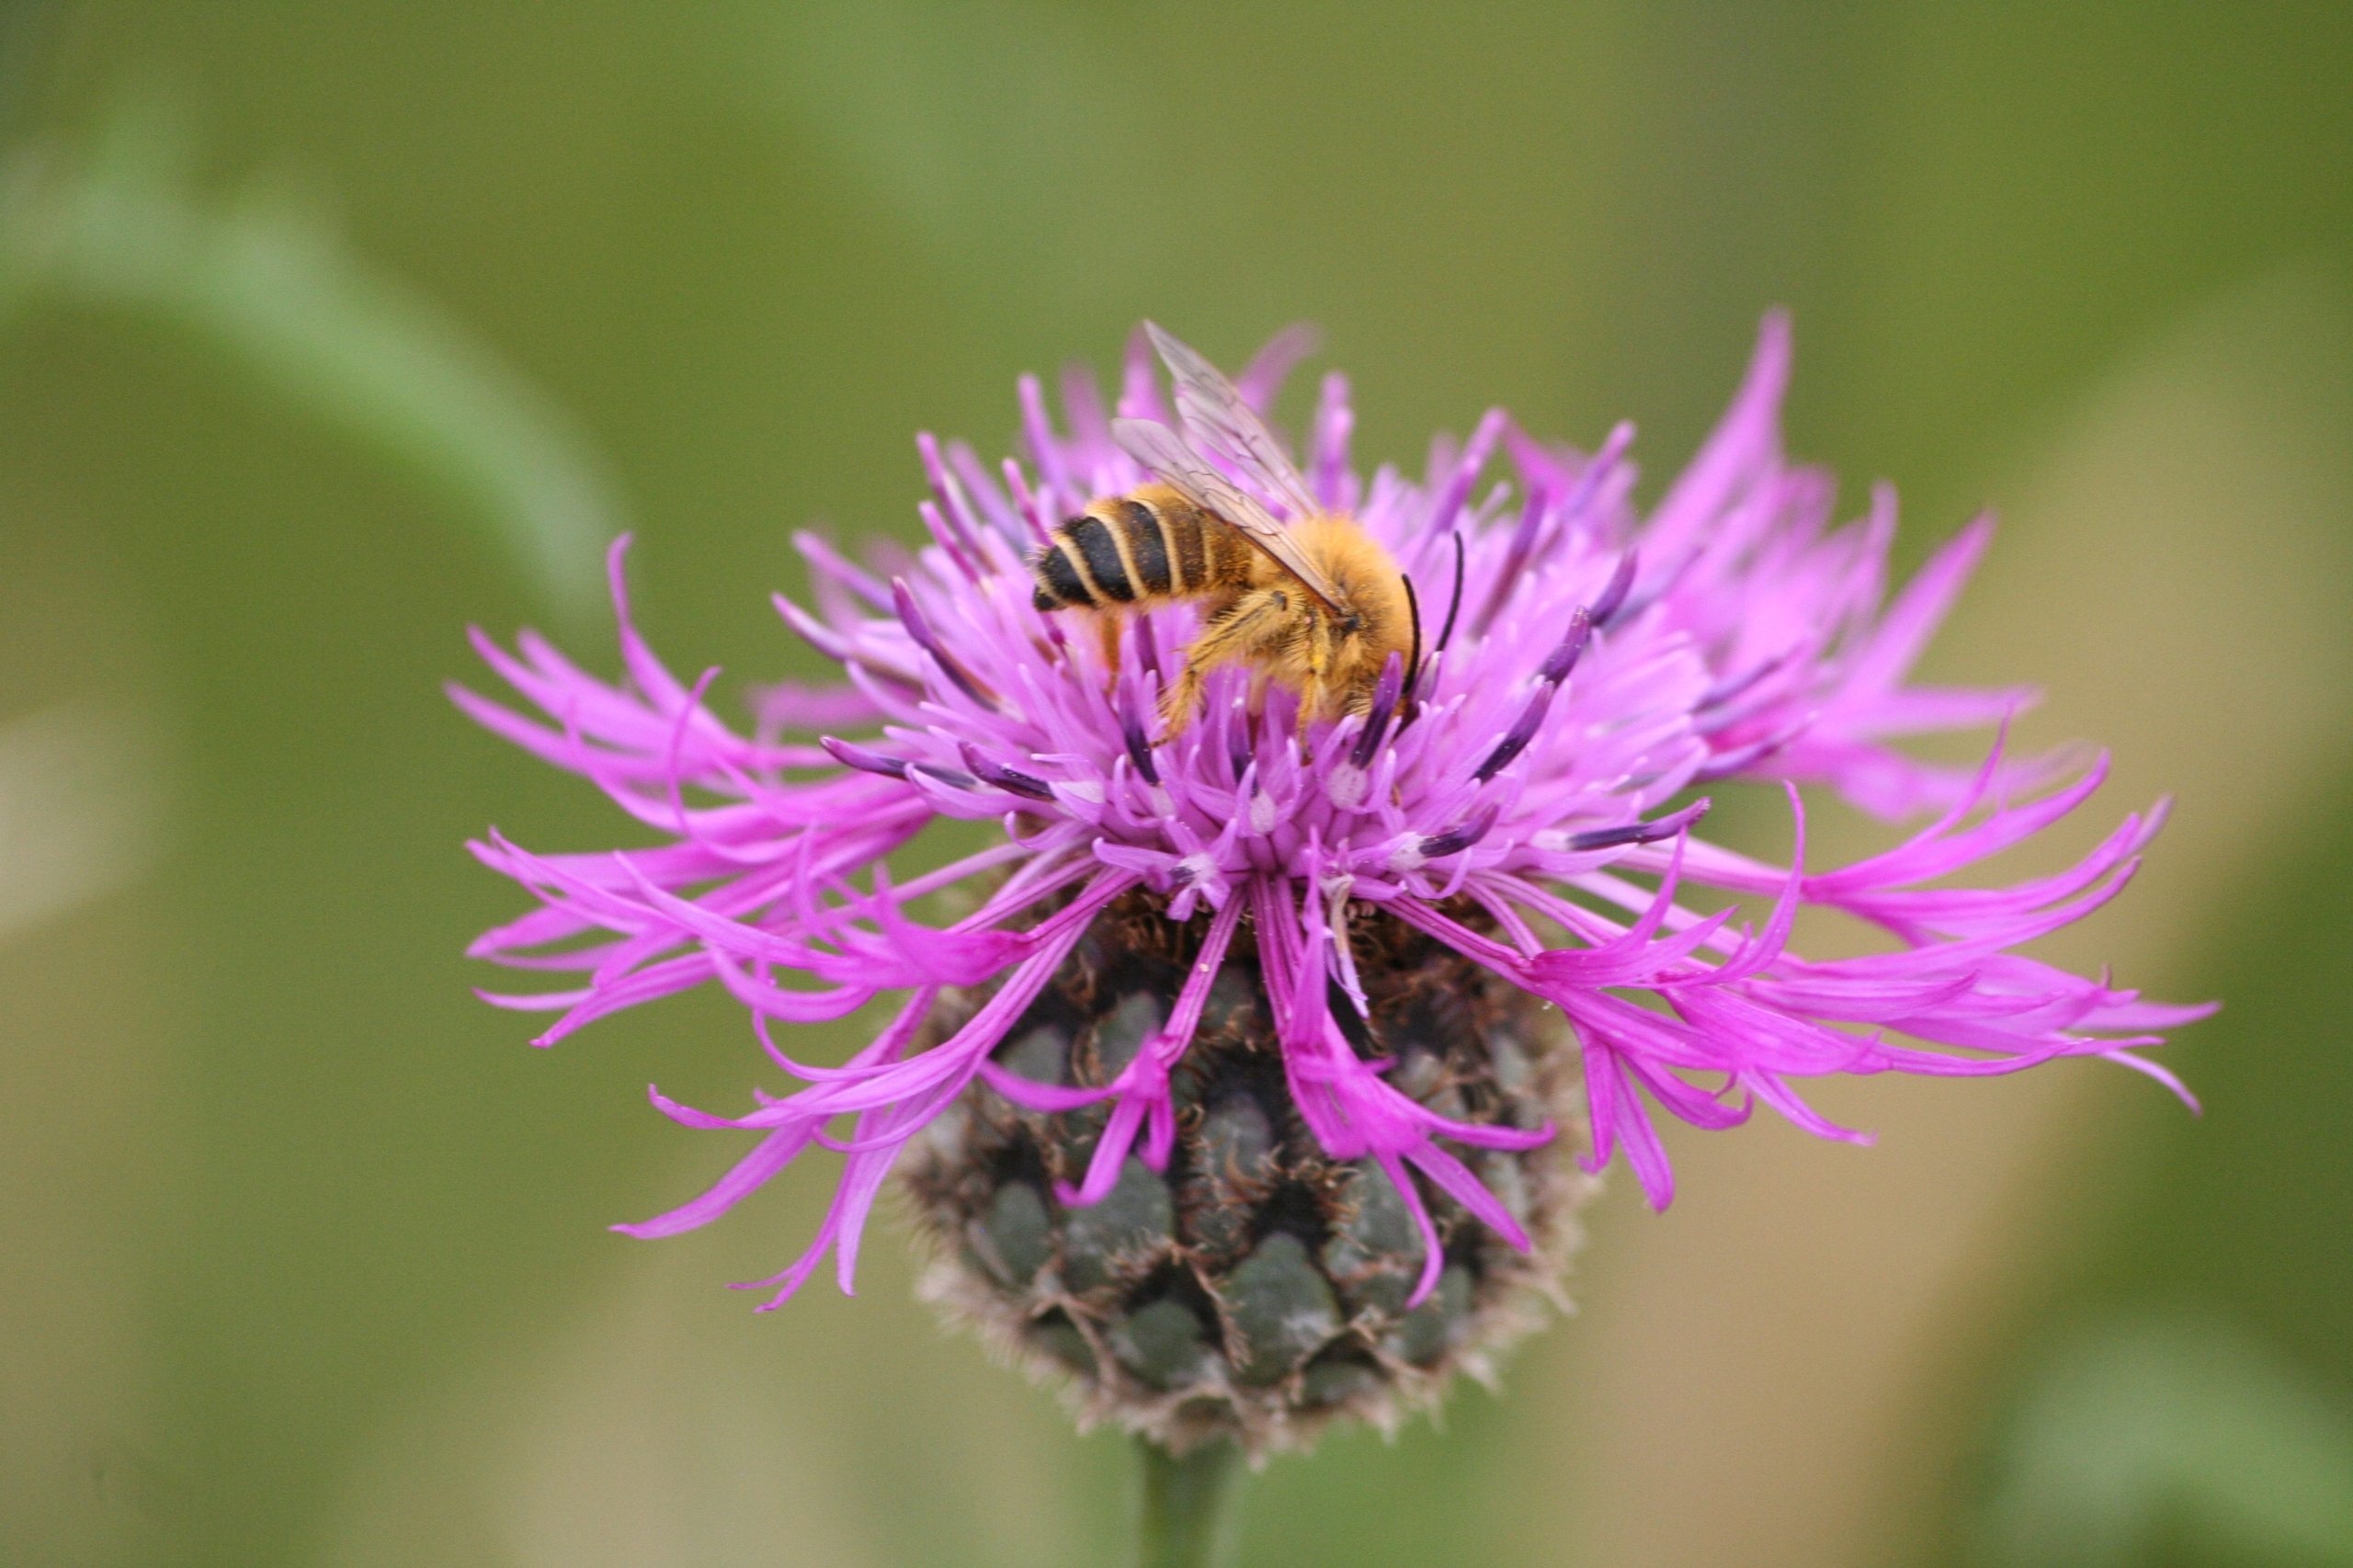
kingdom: Animalia
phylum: Arthropoda
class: Insecta
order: Hymenoptera
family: Melittidae
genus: Dasypoda
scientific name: Dasypoda hirtipes
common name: Pragtbuksebi
